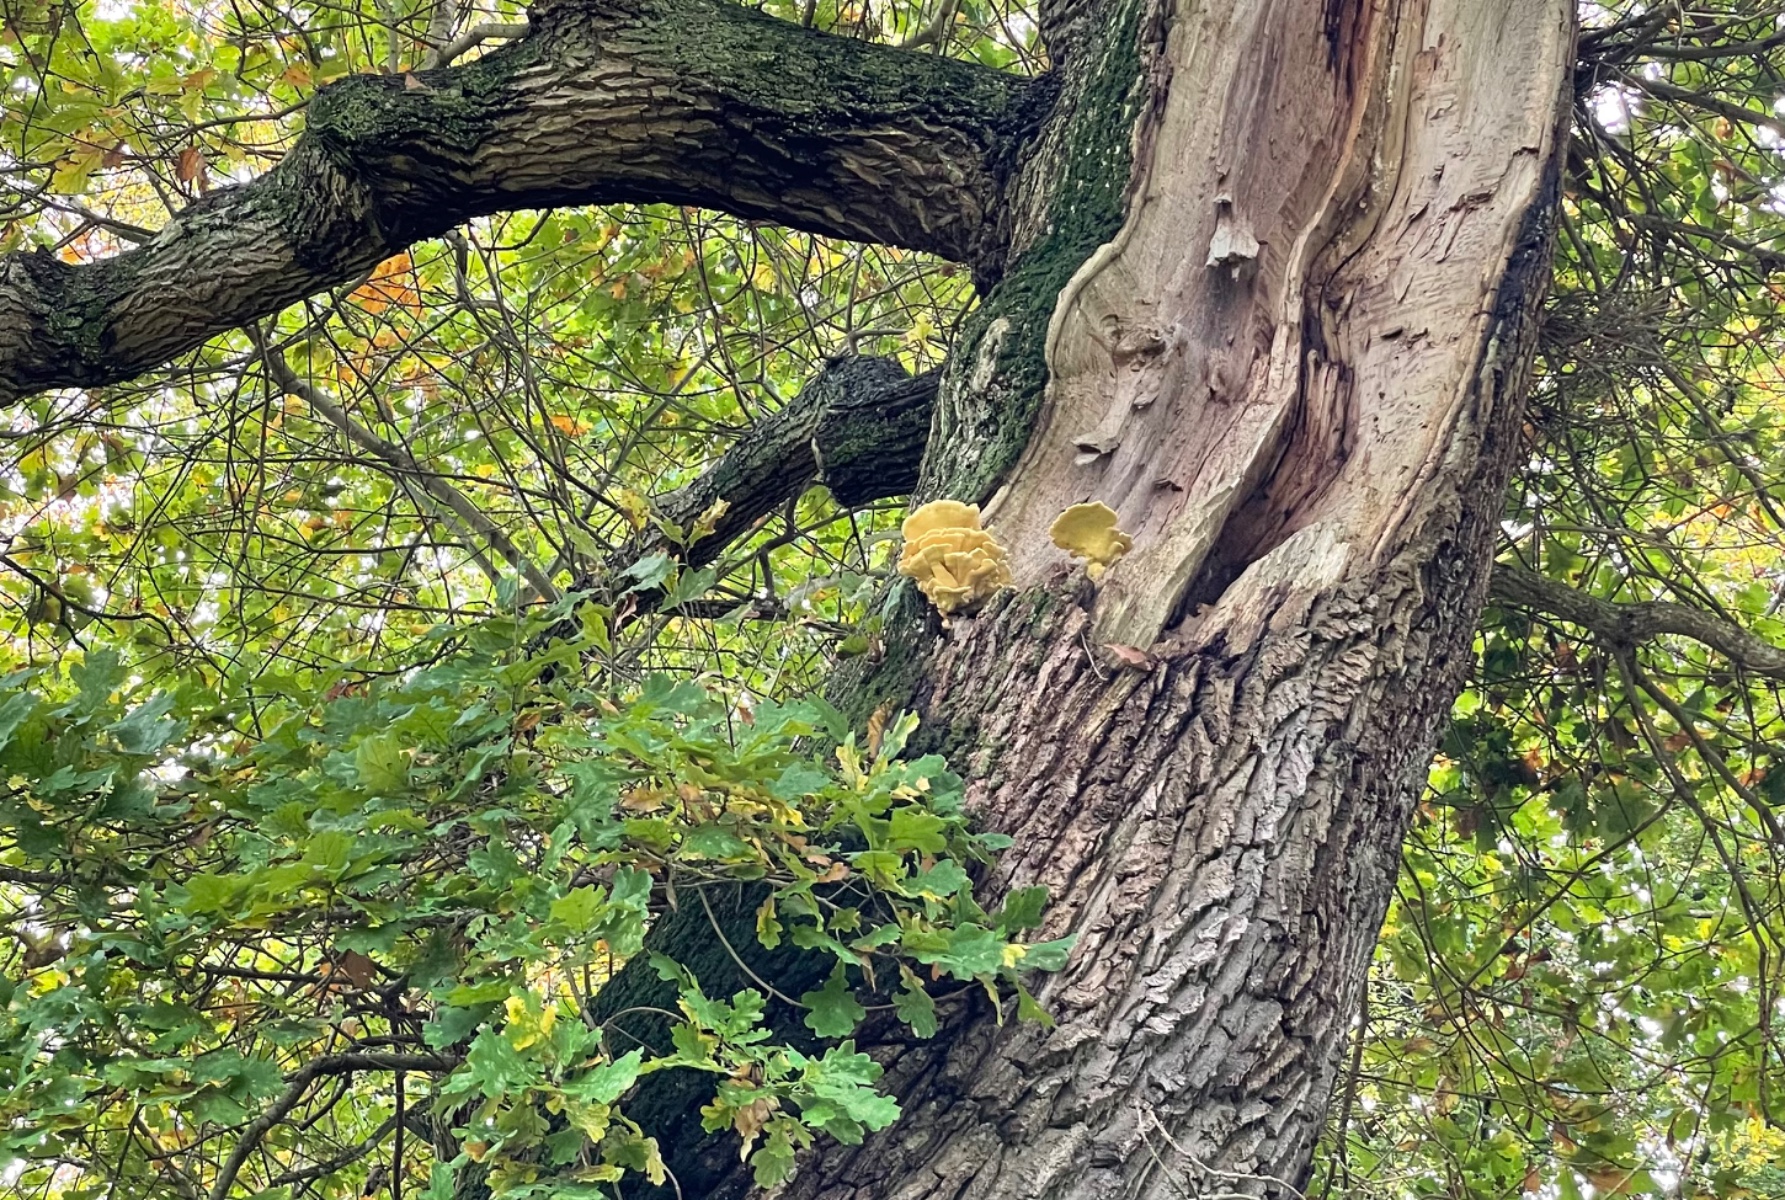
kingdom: Fungi
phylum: Basidiomycota
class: Agaricomycetes
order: Polyporales
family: Laetiporaceae
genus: Laetiporus
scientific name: Laetiporus sulphureus
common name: svovlporesvamp
